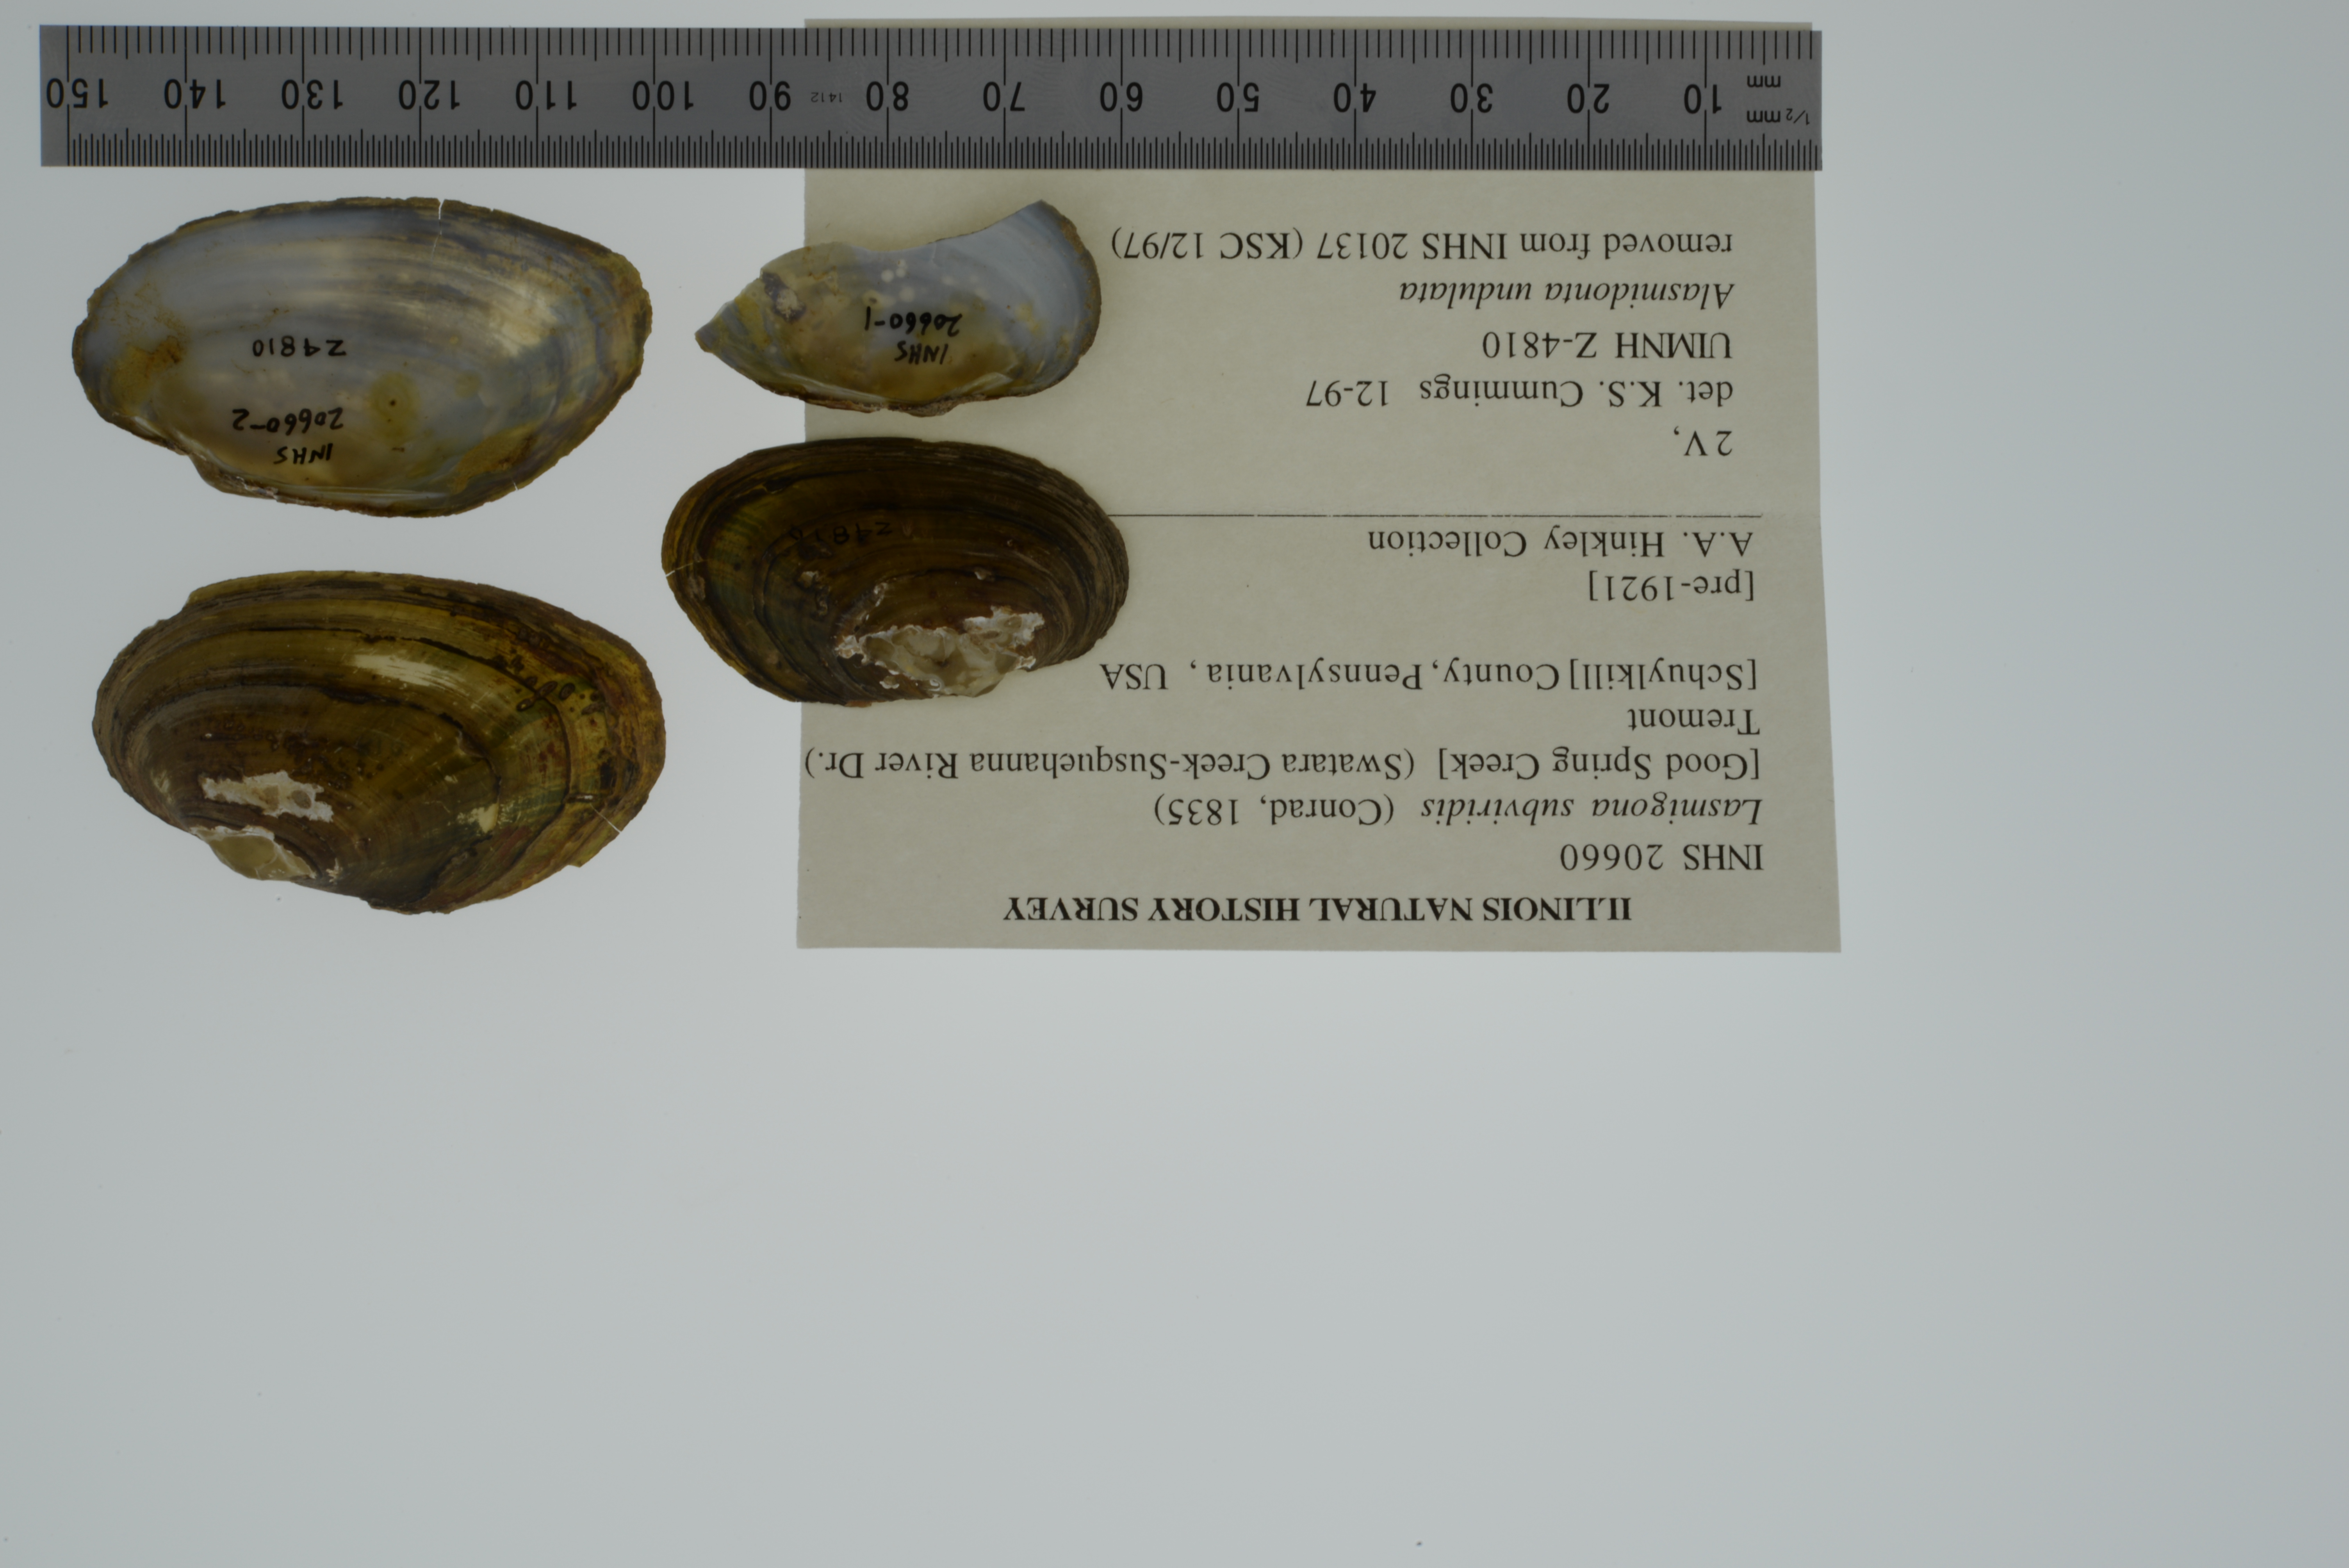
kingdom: Animalia
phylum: Mollusca
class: Bivalvia
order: Unionida
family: Unionidae
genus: Lasmigona
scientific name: Lasmigona subviridis
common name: Green floater
